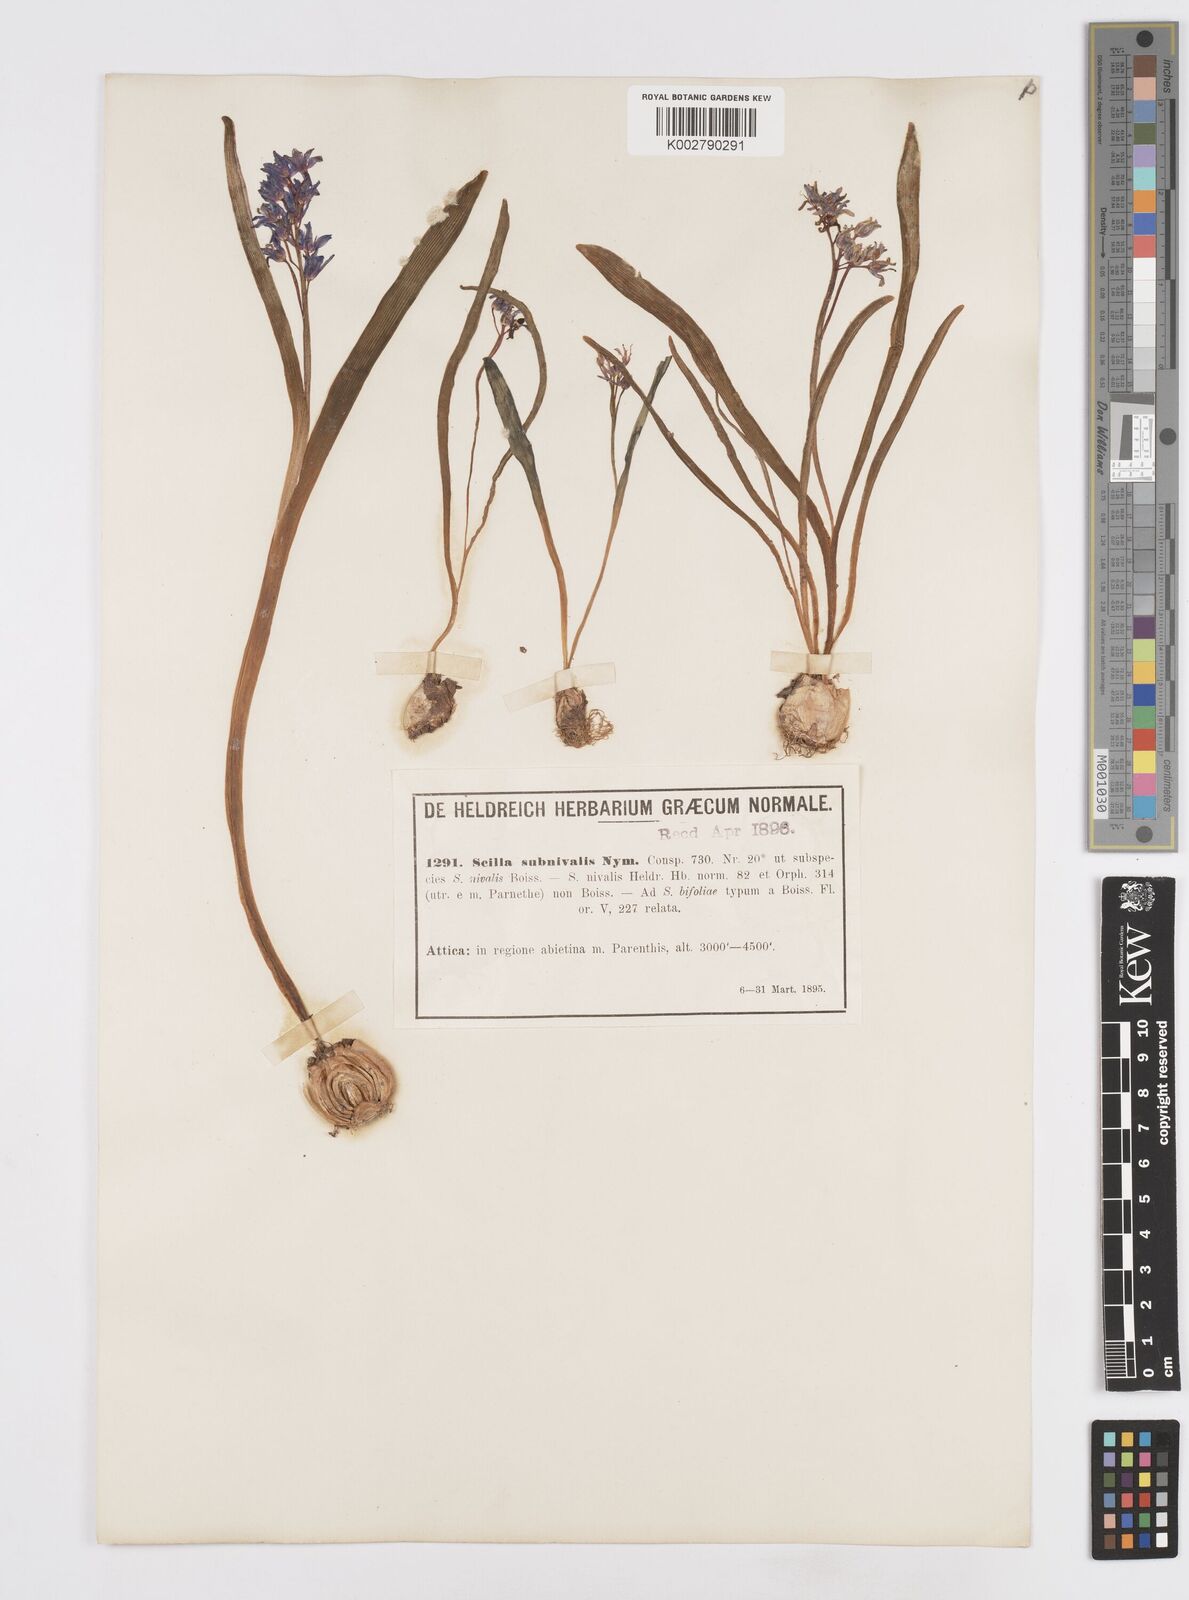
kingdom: Plantae
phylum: Tracheophyta
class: Liliopsida
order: Asparagales
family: Asparagaceae
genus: Scilla
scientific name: Scilla nivalis
